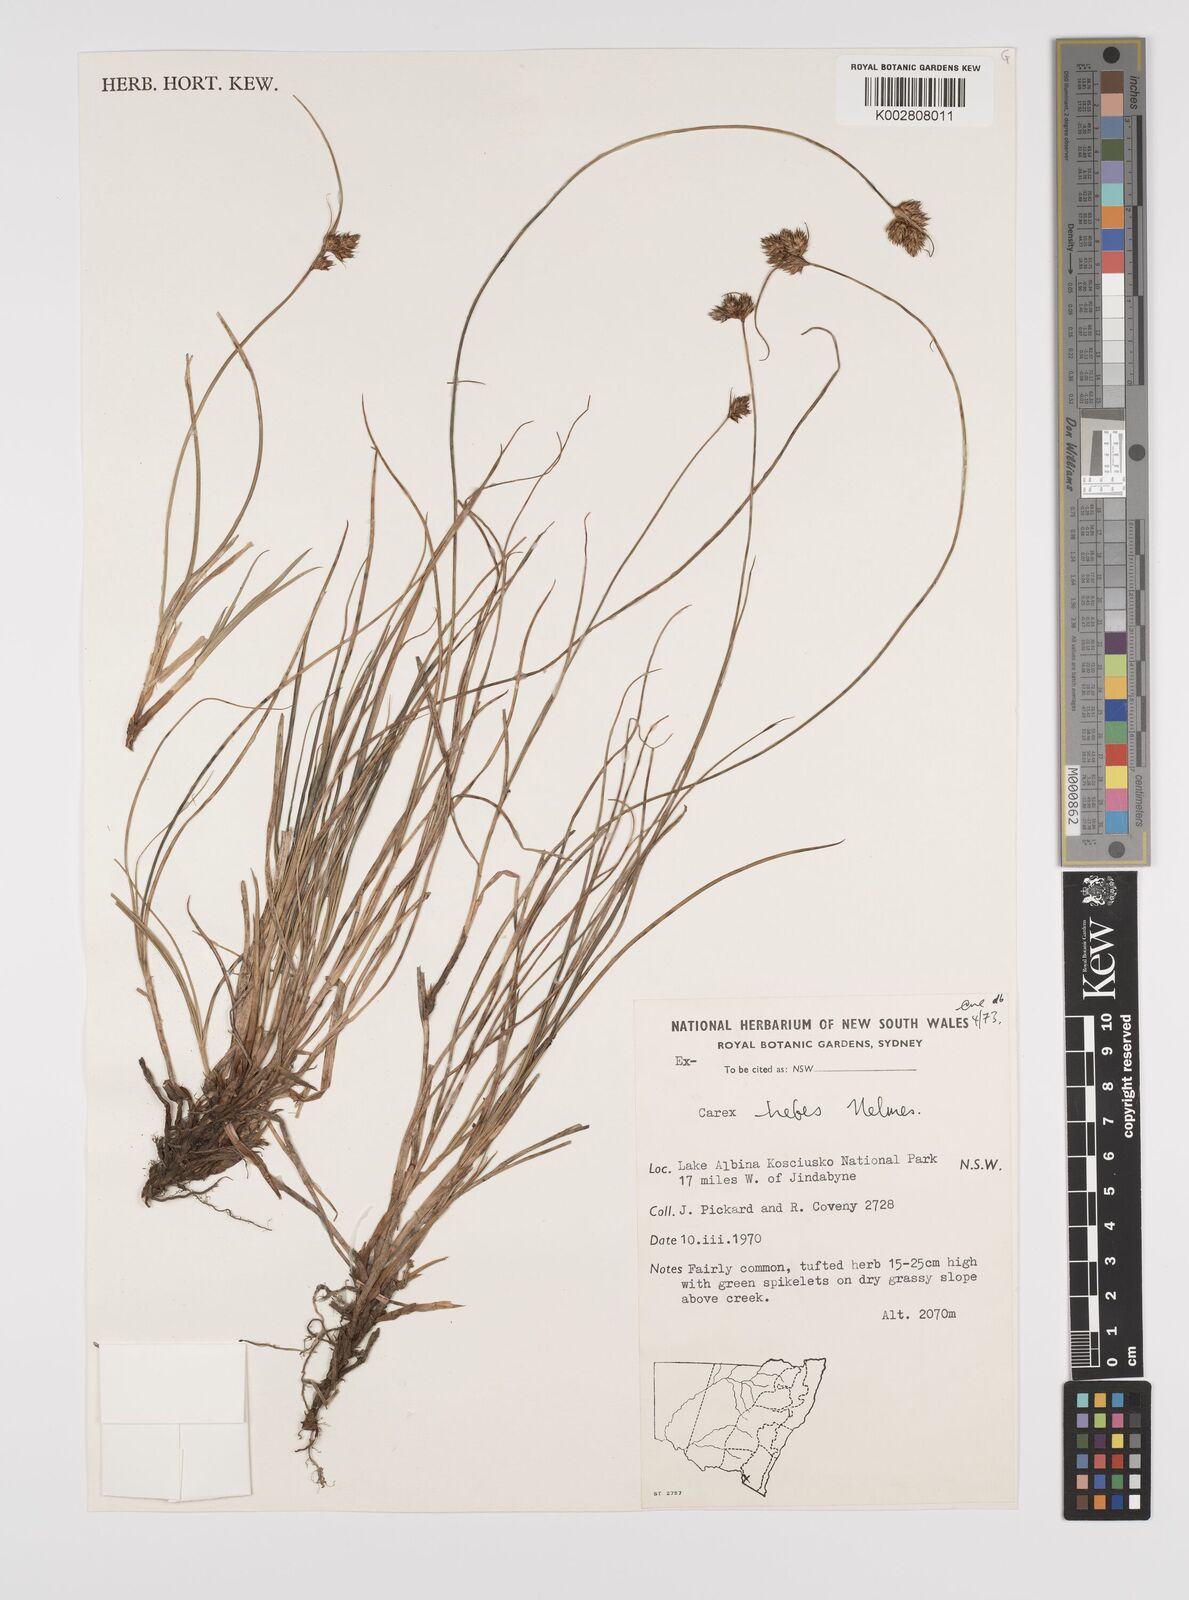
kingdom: Plantae
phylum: Tracheophyta
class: Liliopsida
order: Poales
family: Cyperaceae
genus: Carex
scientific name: Carex hebes
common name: Dry land sedge
